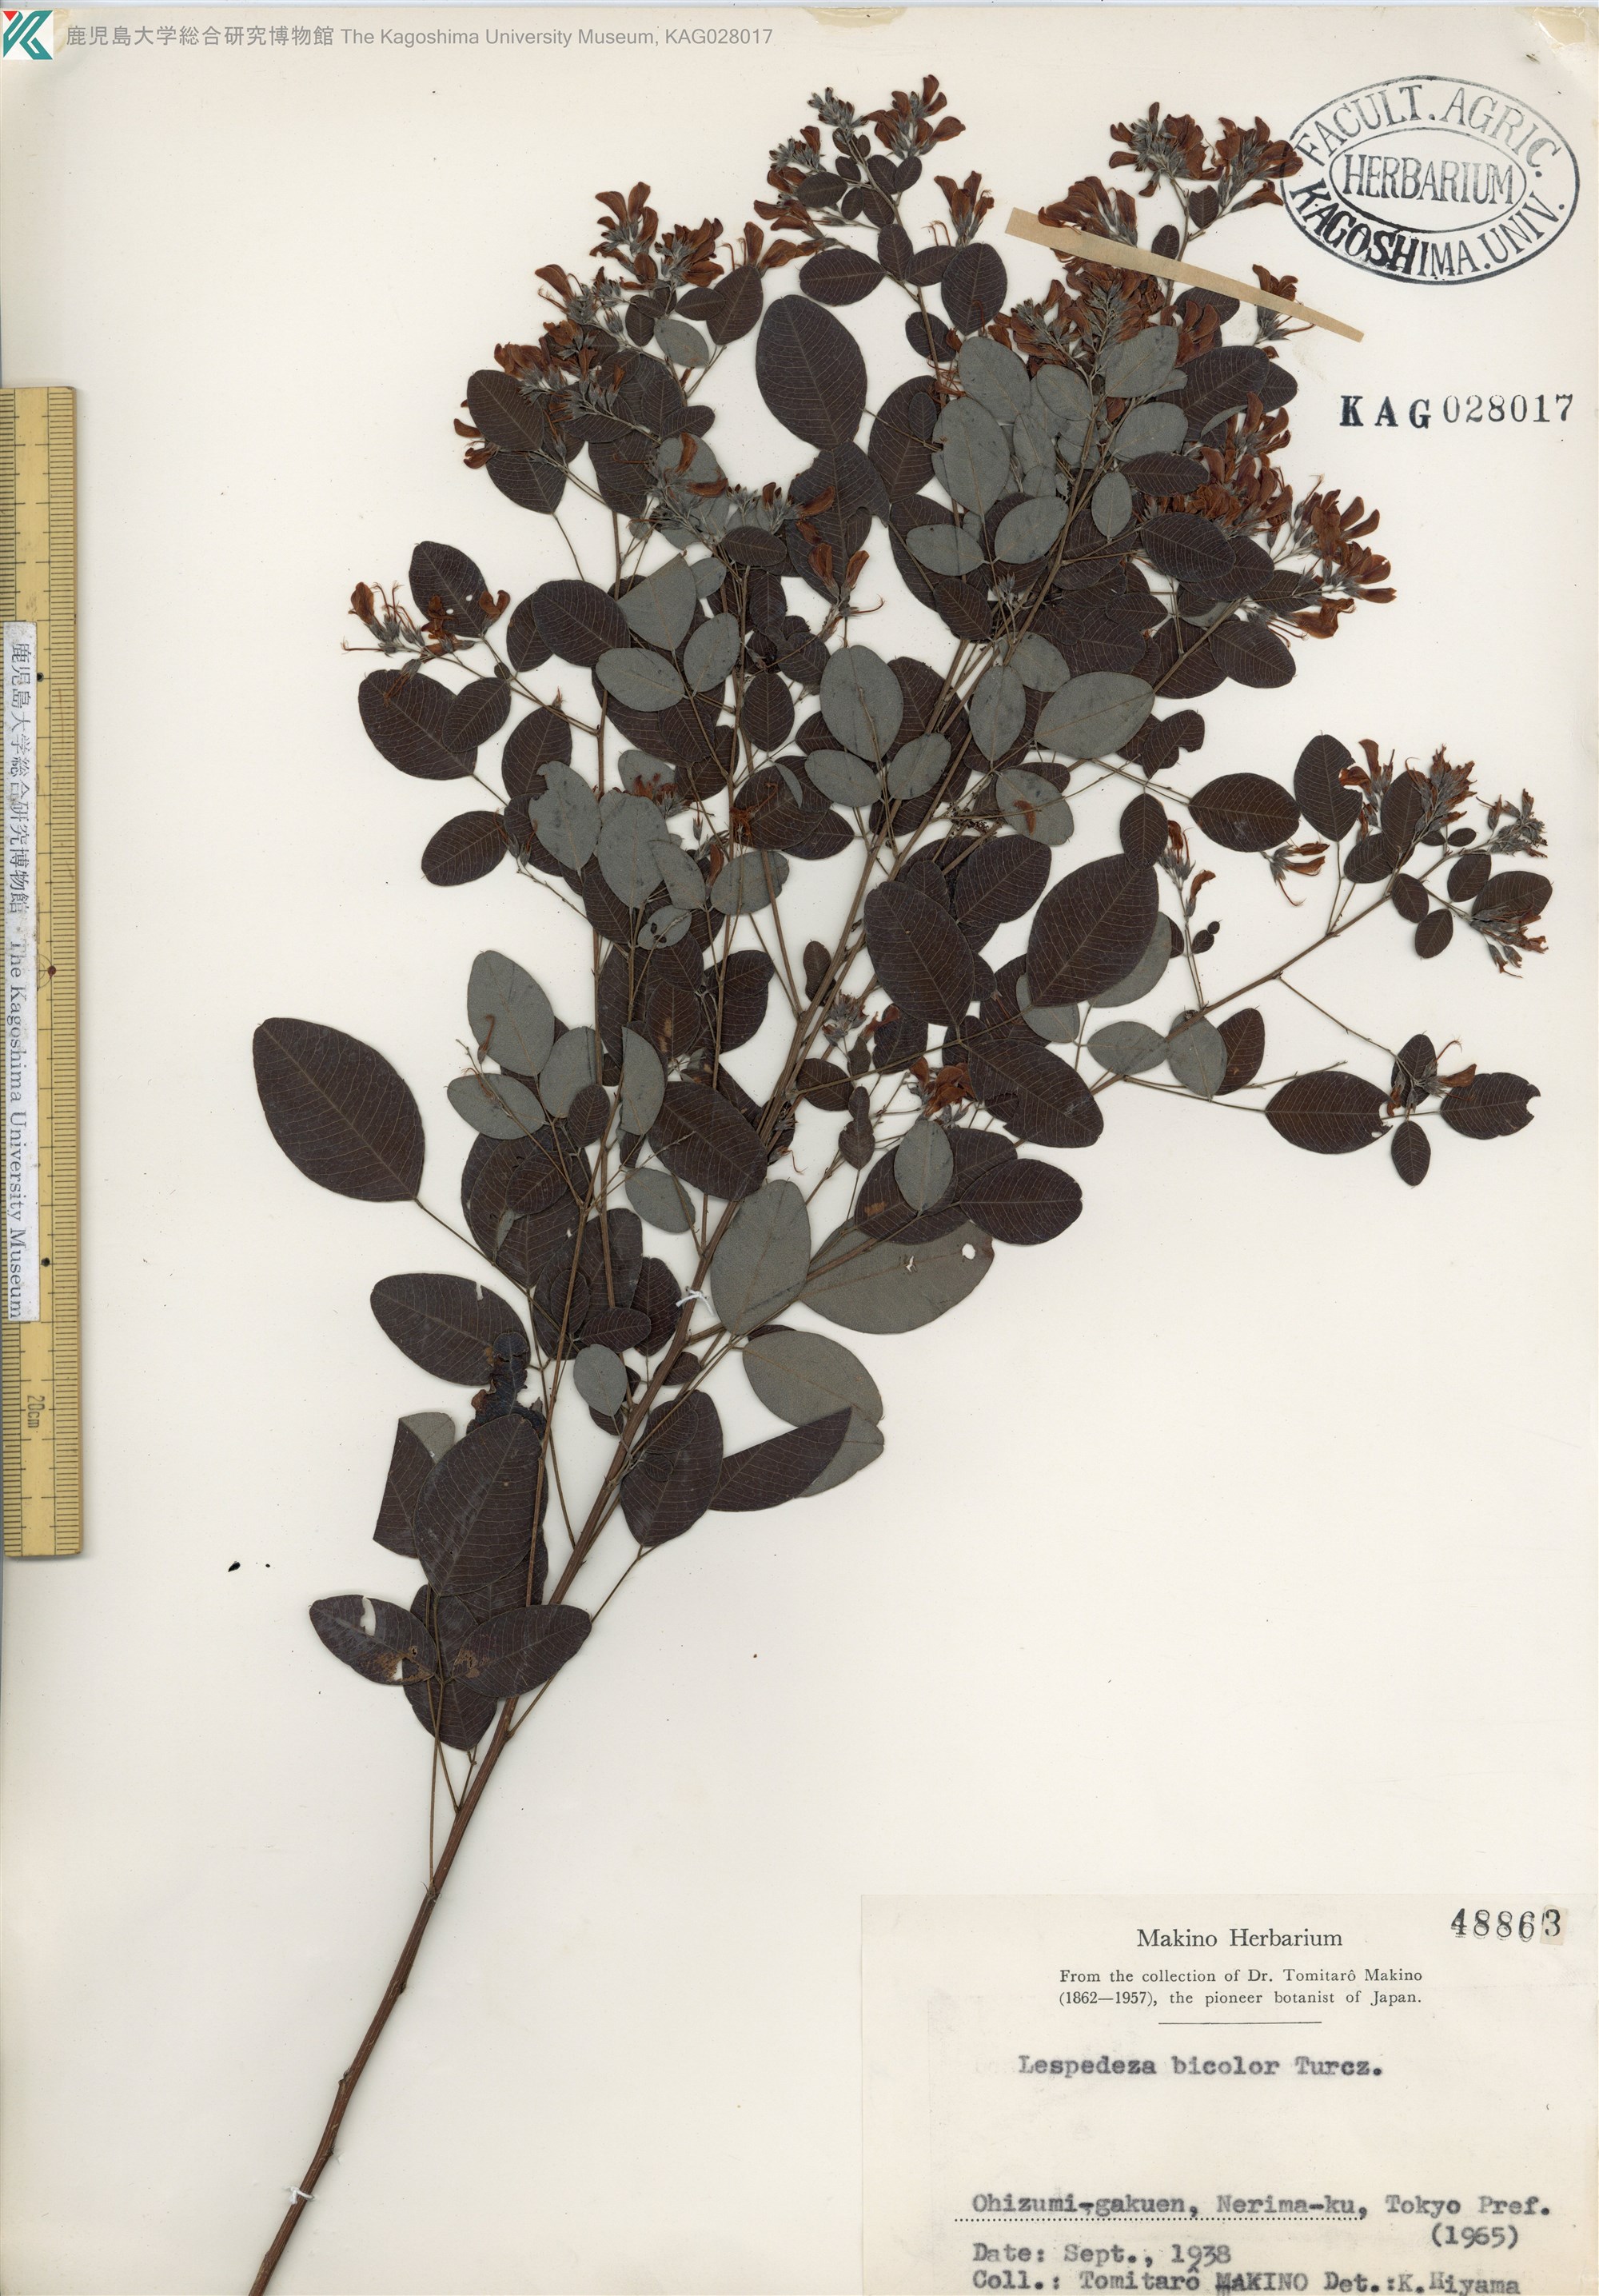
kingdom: Plantae
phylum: Tracheophyta
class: Magnoliopsida
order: Fabales
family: Fabaceae
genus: Lespedeza
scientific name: Lespedeza bicolor
